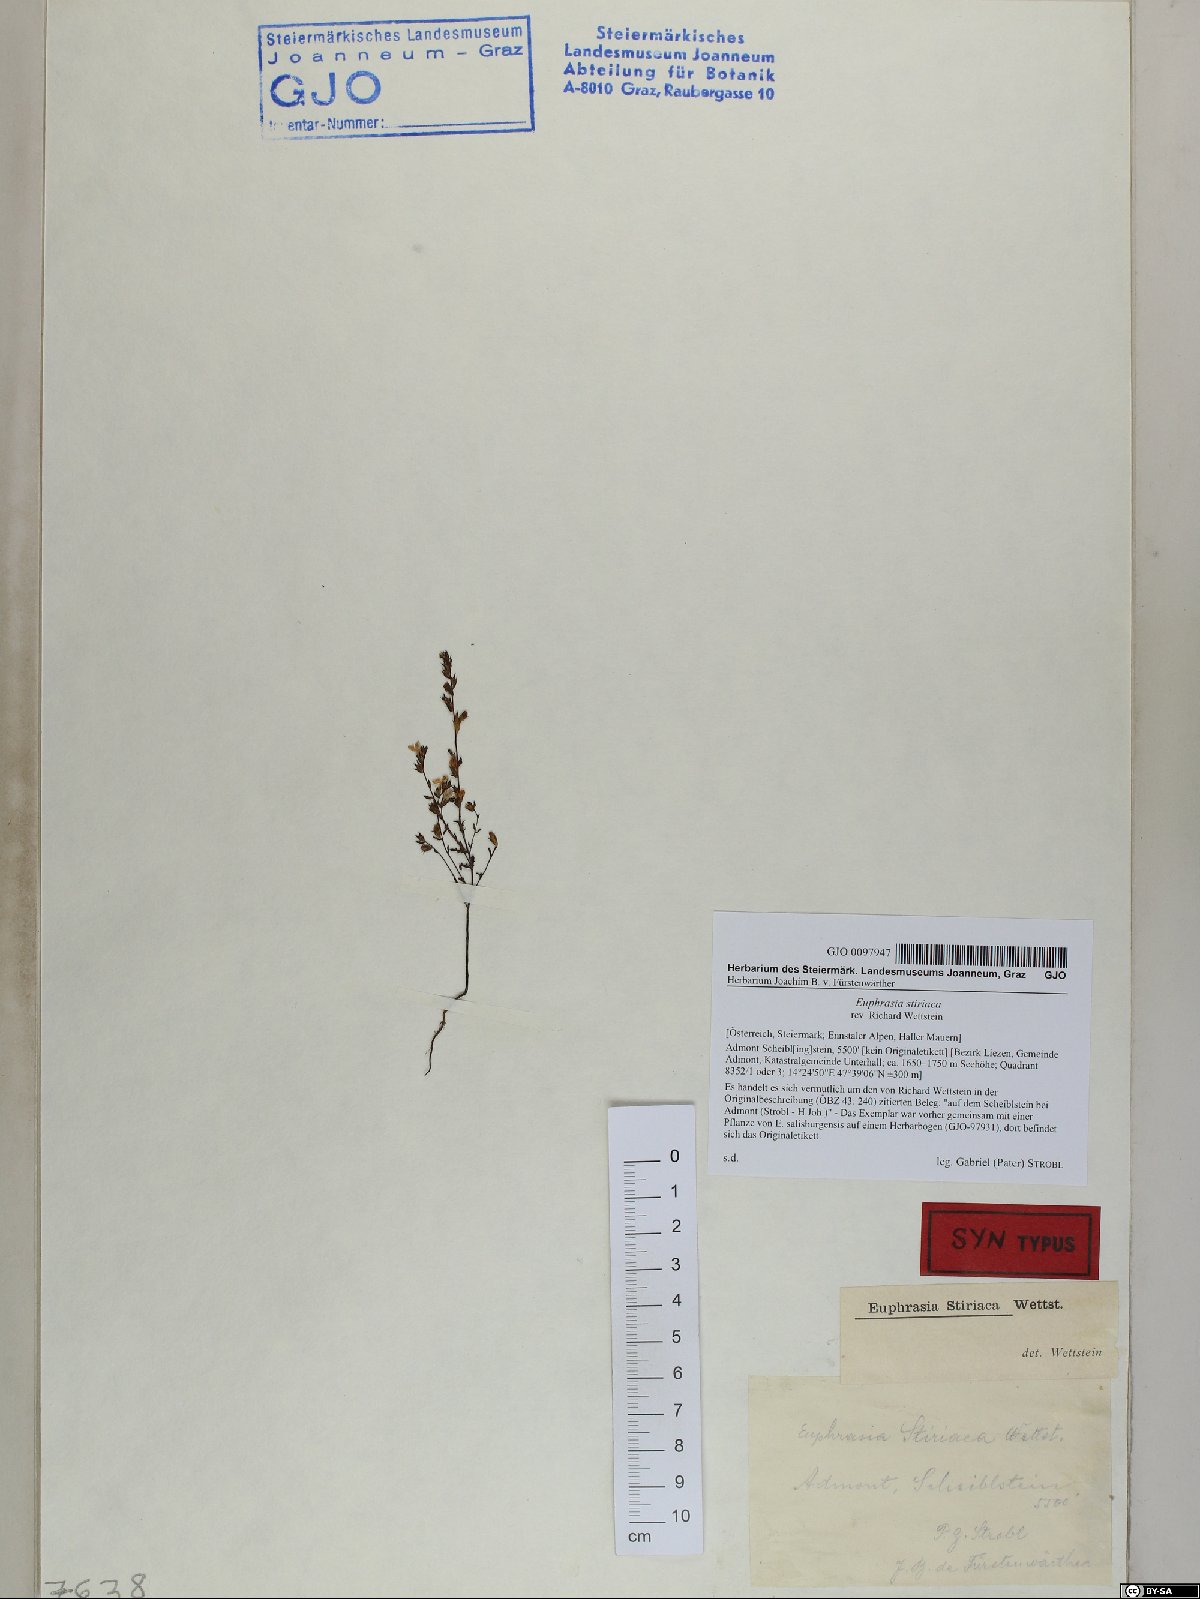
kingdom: Plantae
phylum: Tracheophyta
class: Magnoliopsida
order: Lamiales
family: Orobanchaceae
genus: Euphrasia
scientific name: Euphrasia cuspidata
